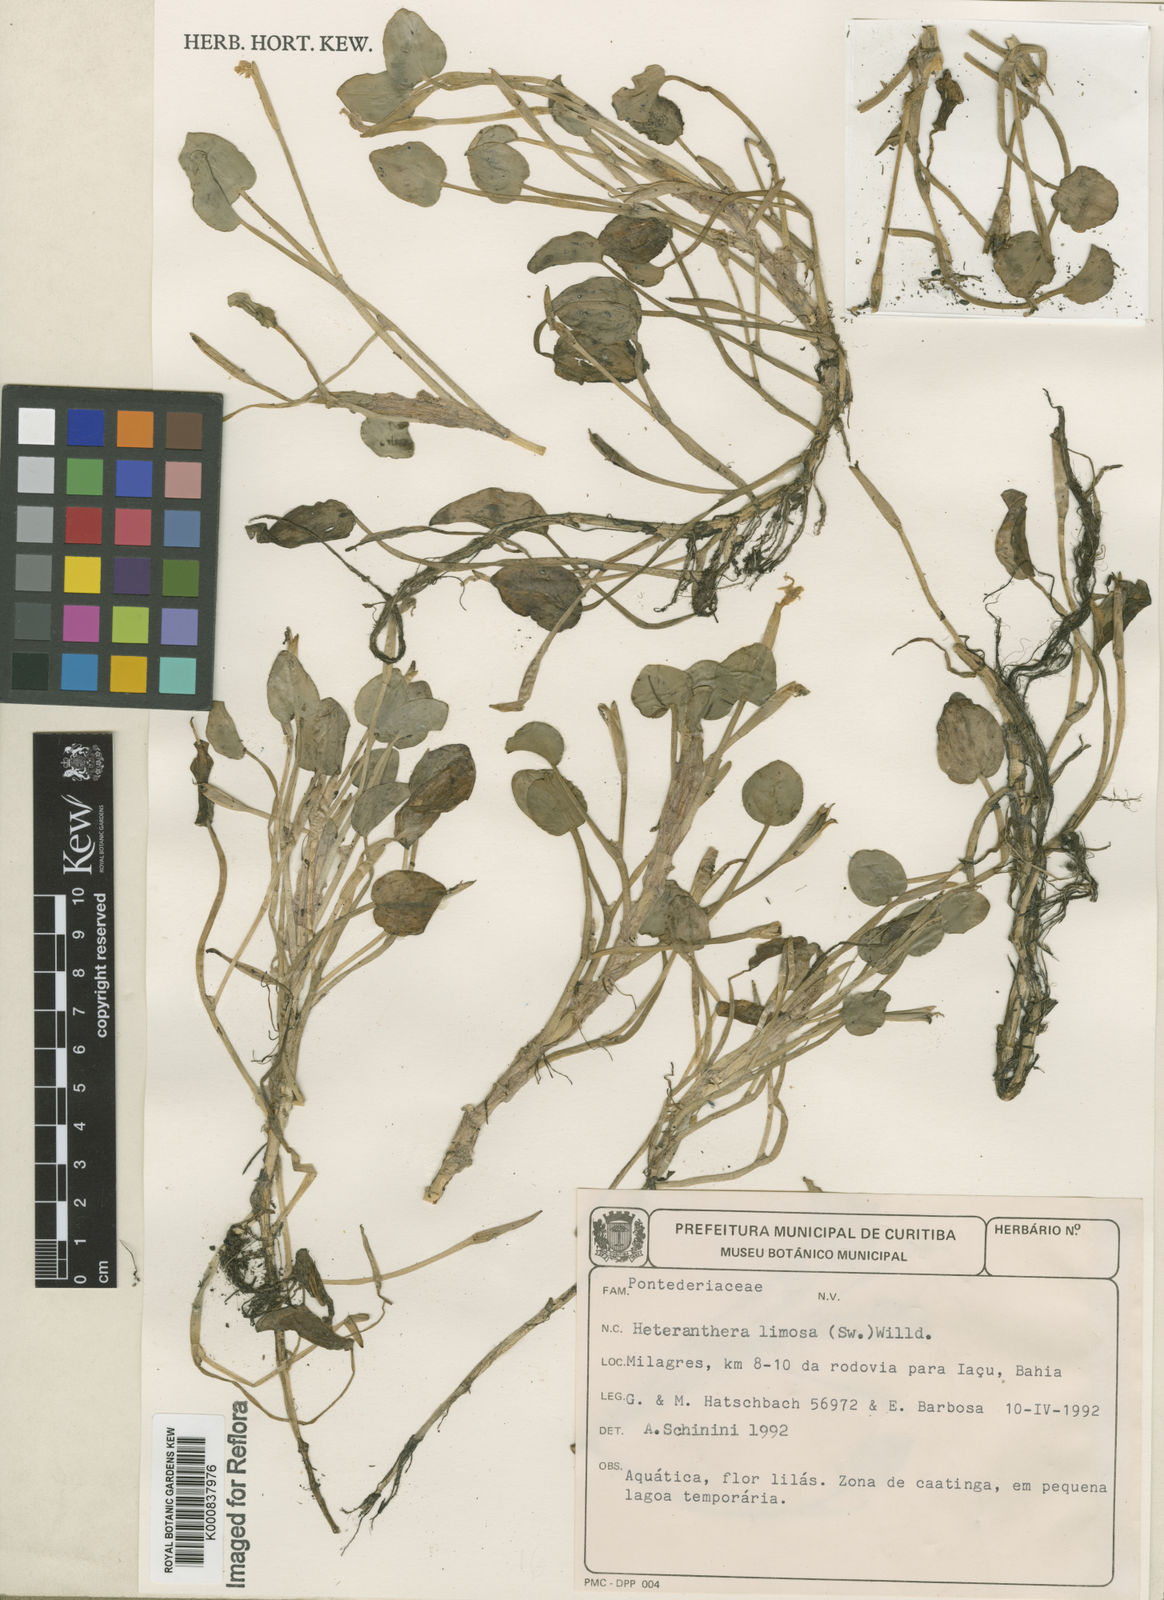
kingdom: Plantae
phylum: Tracheophyta
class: Liliopsida
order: Commelinales
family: Pontederiaceae
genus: Heteranthera
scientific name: Heteranthera limosa
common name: Blue mud-plantain
